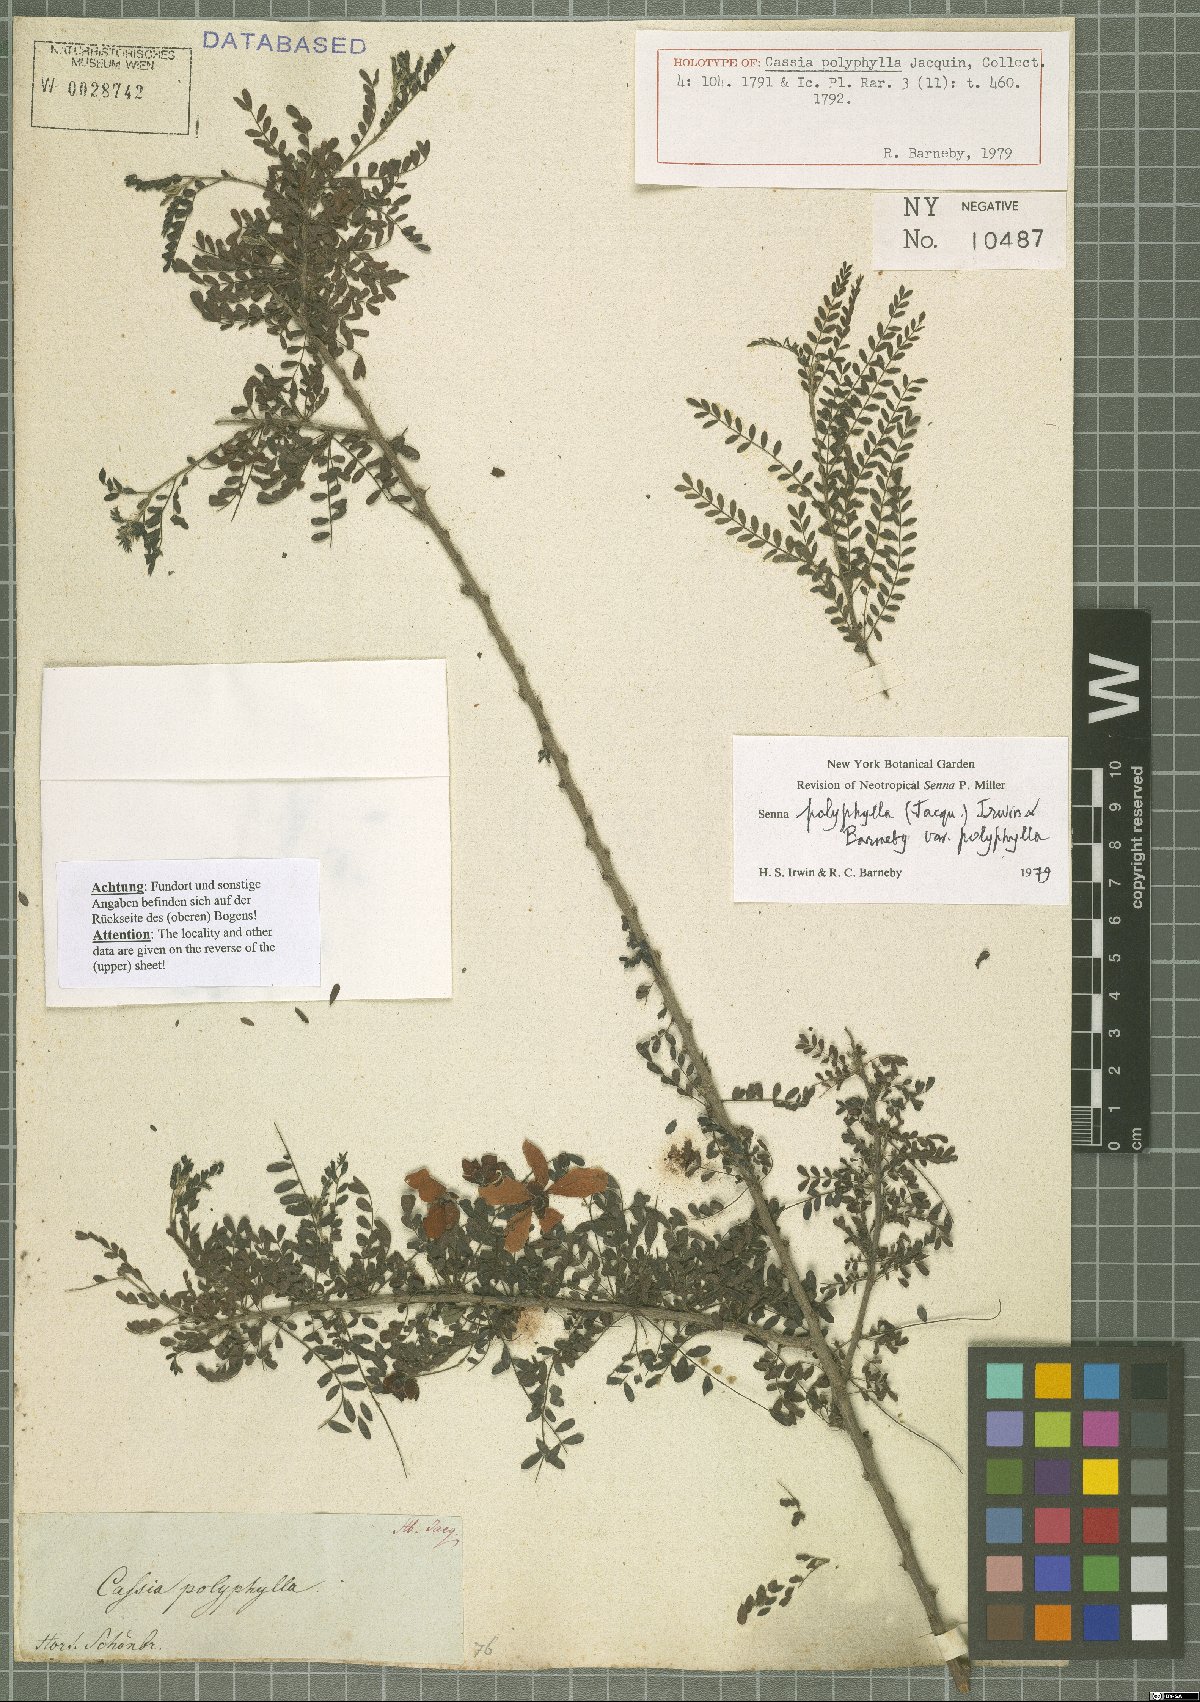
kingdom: Plantae
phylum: Tracheophyta
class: Magnoliopsida
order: Fabales
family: Fabaceae
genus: Senna
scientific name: Senna polyphylla
